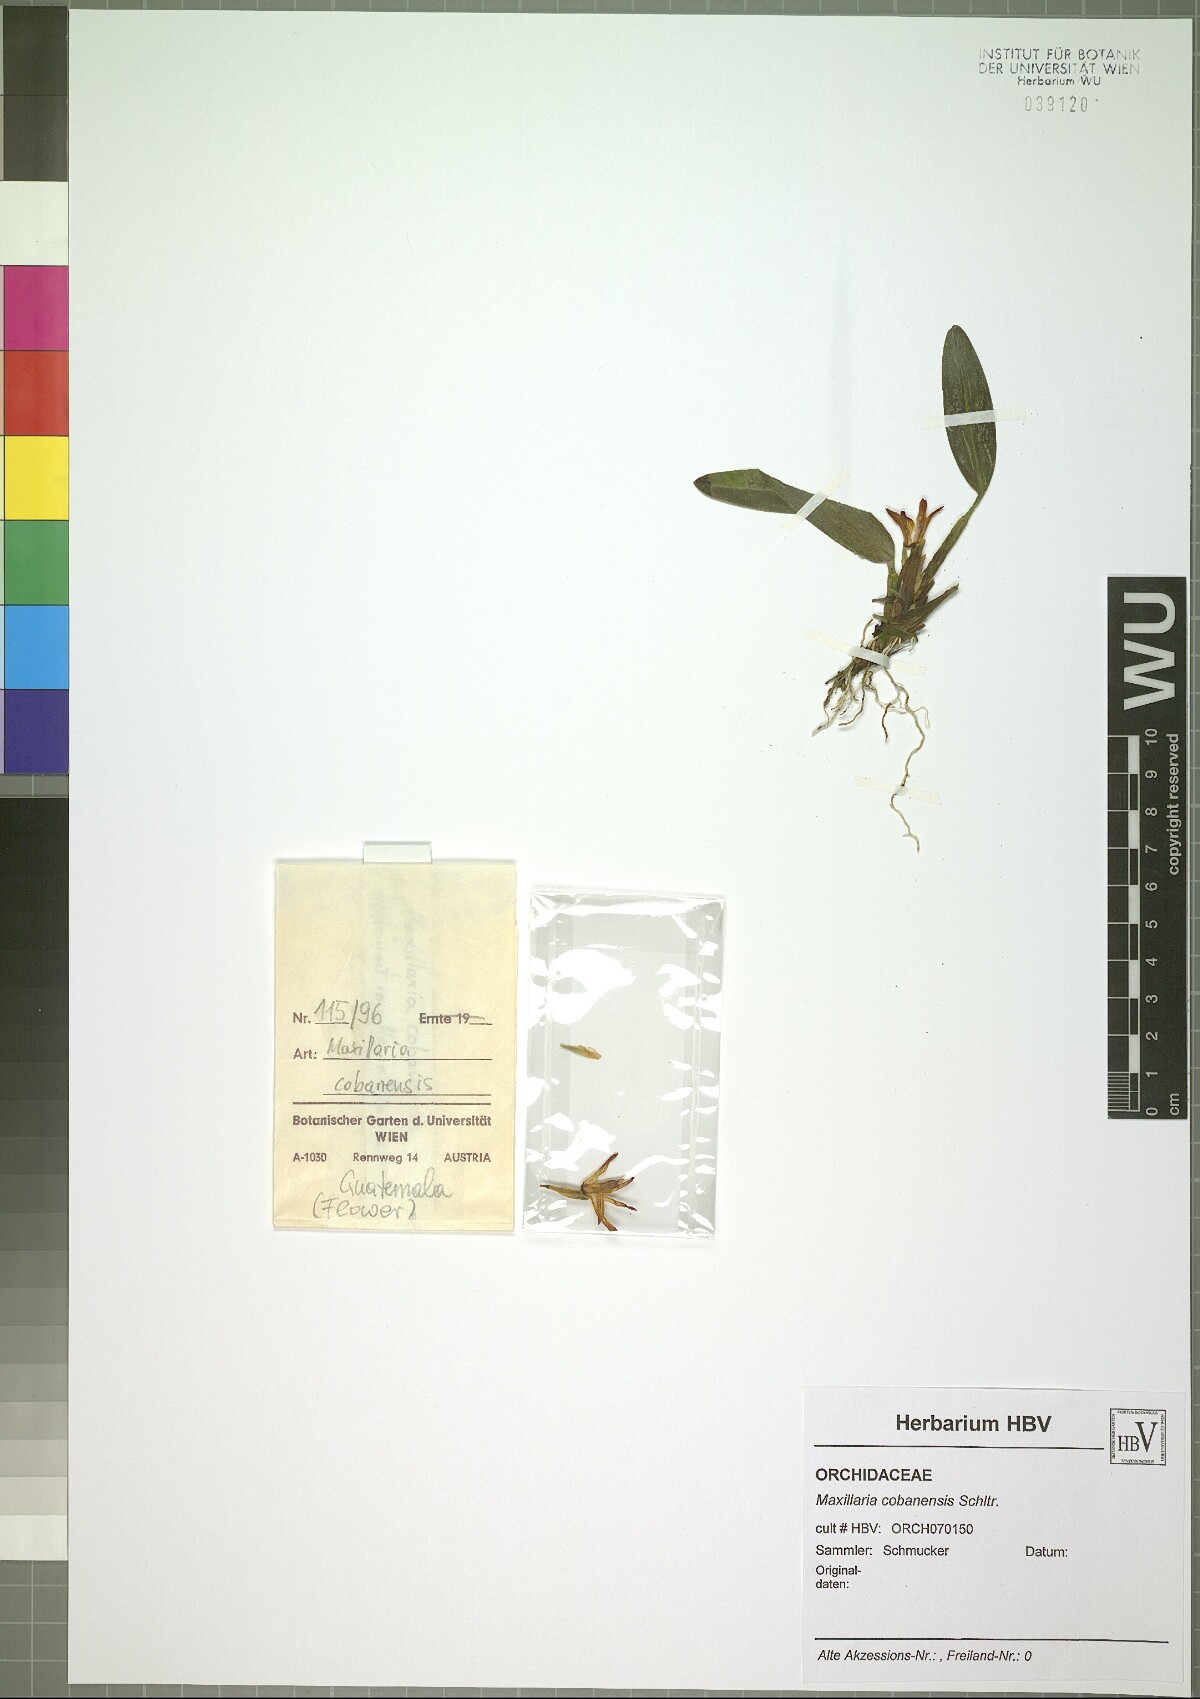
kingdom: Plantae
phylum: Tracheophyta
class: Liliopsida
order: Asparagales
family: Orchidaceae
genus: Maxillaria
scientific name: Maxillaria cobanensis
